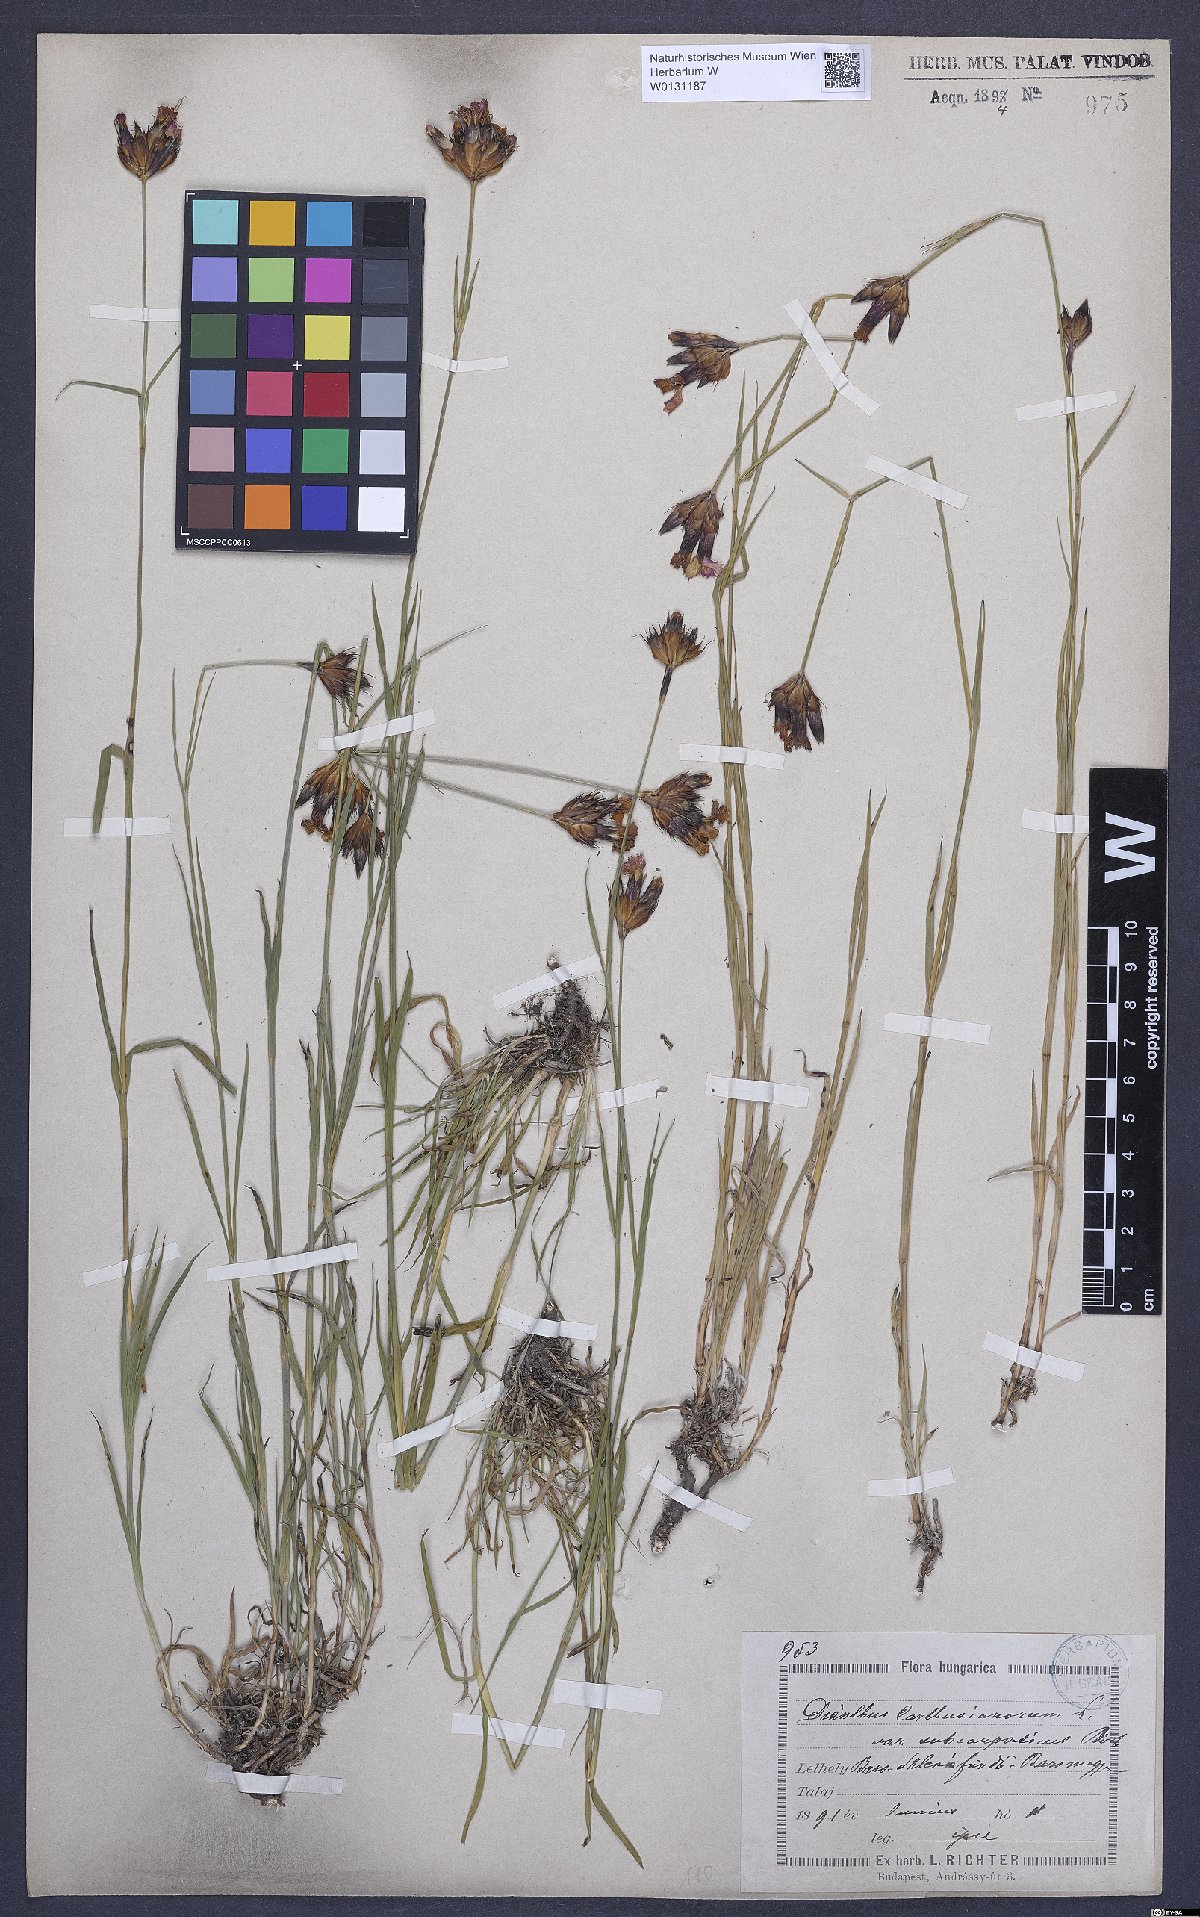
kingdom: Plantae
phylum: Tracheophyta
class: Magnoliopsida
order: Caryophyllales
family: Caryophyllaceae
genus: Dianthus
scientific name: Dianthus carthusianorum
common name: Carthusian pink
